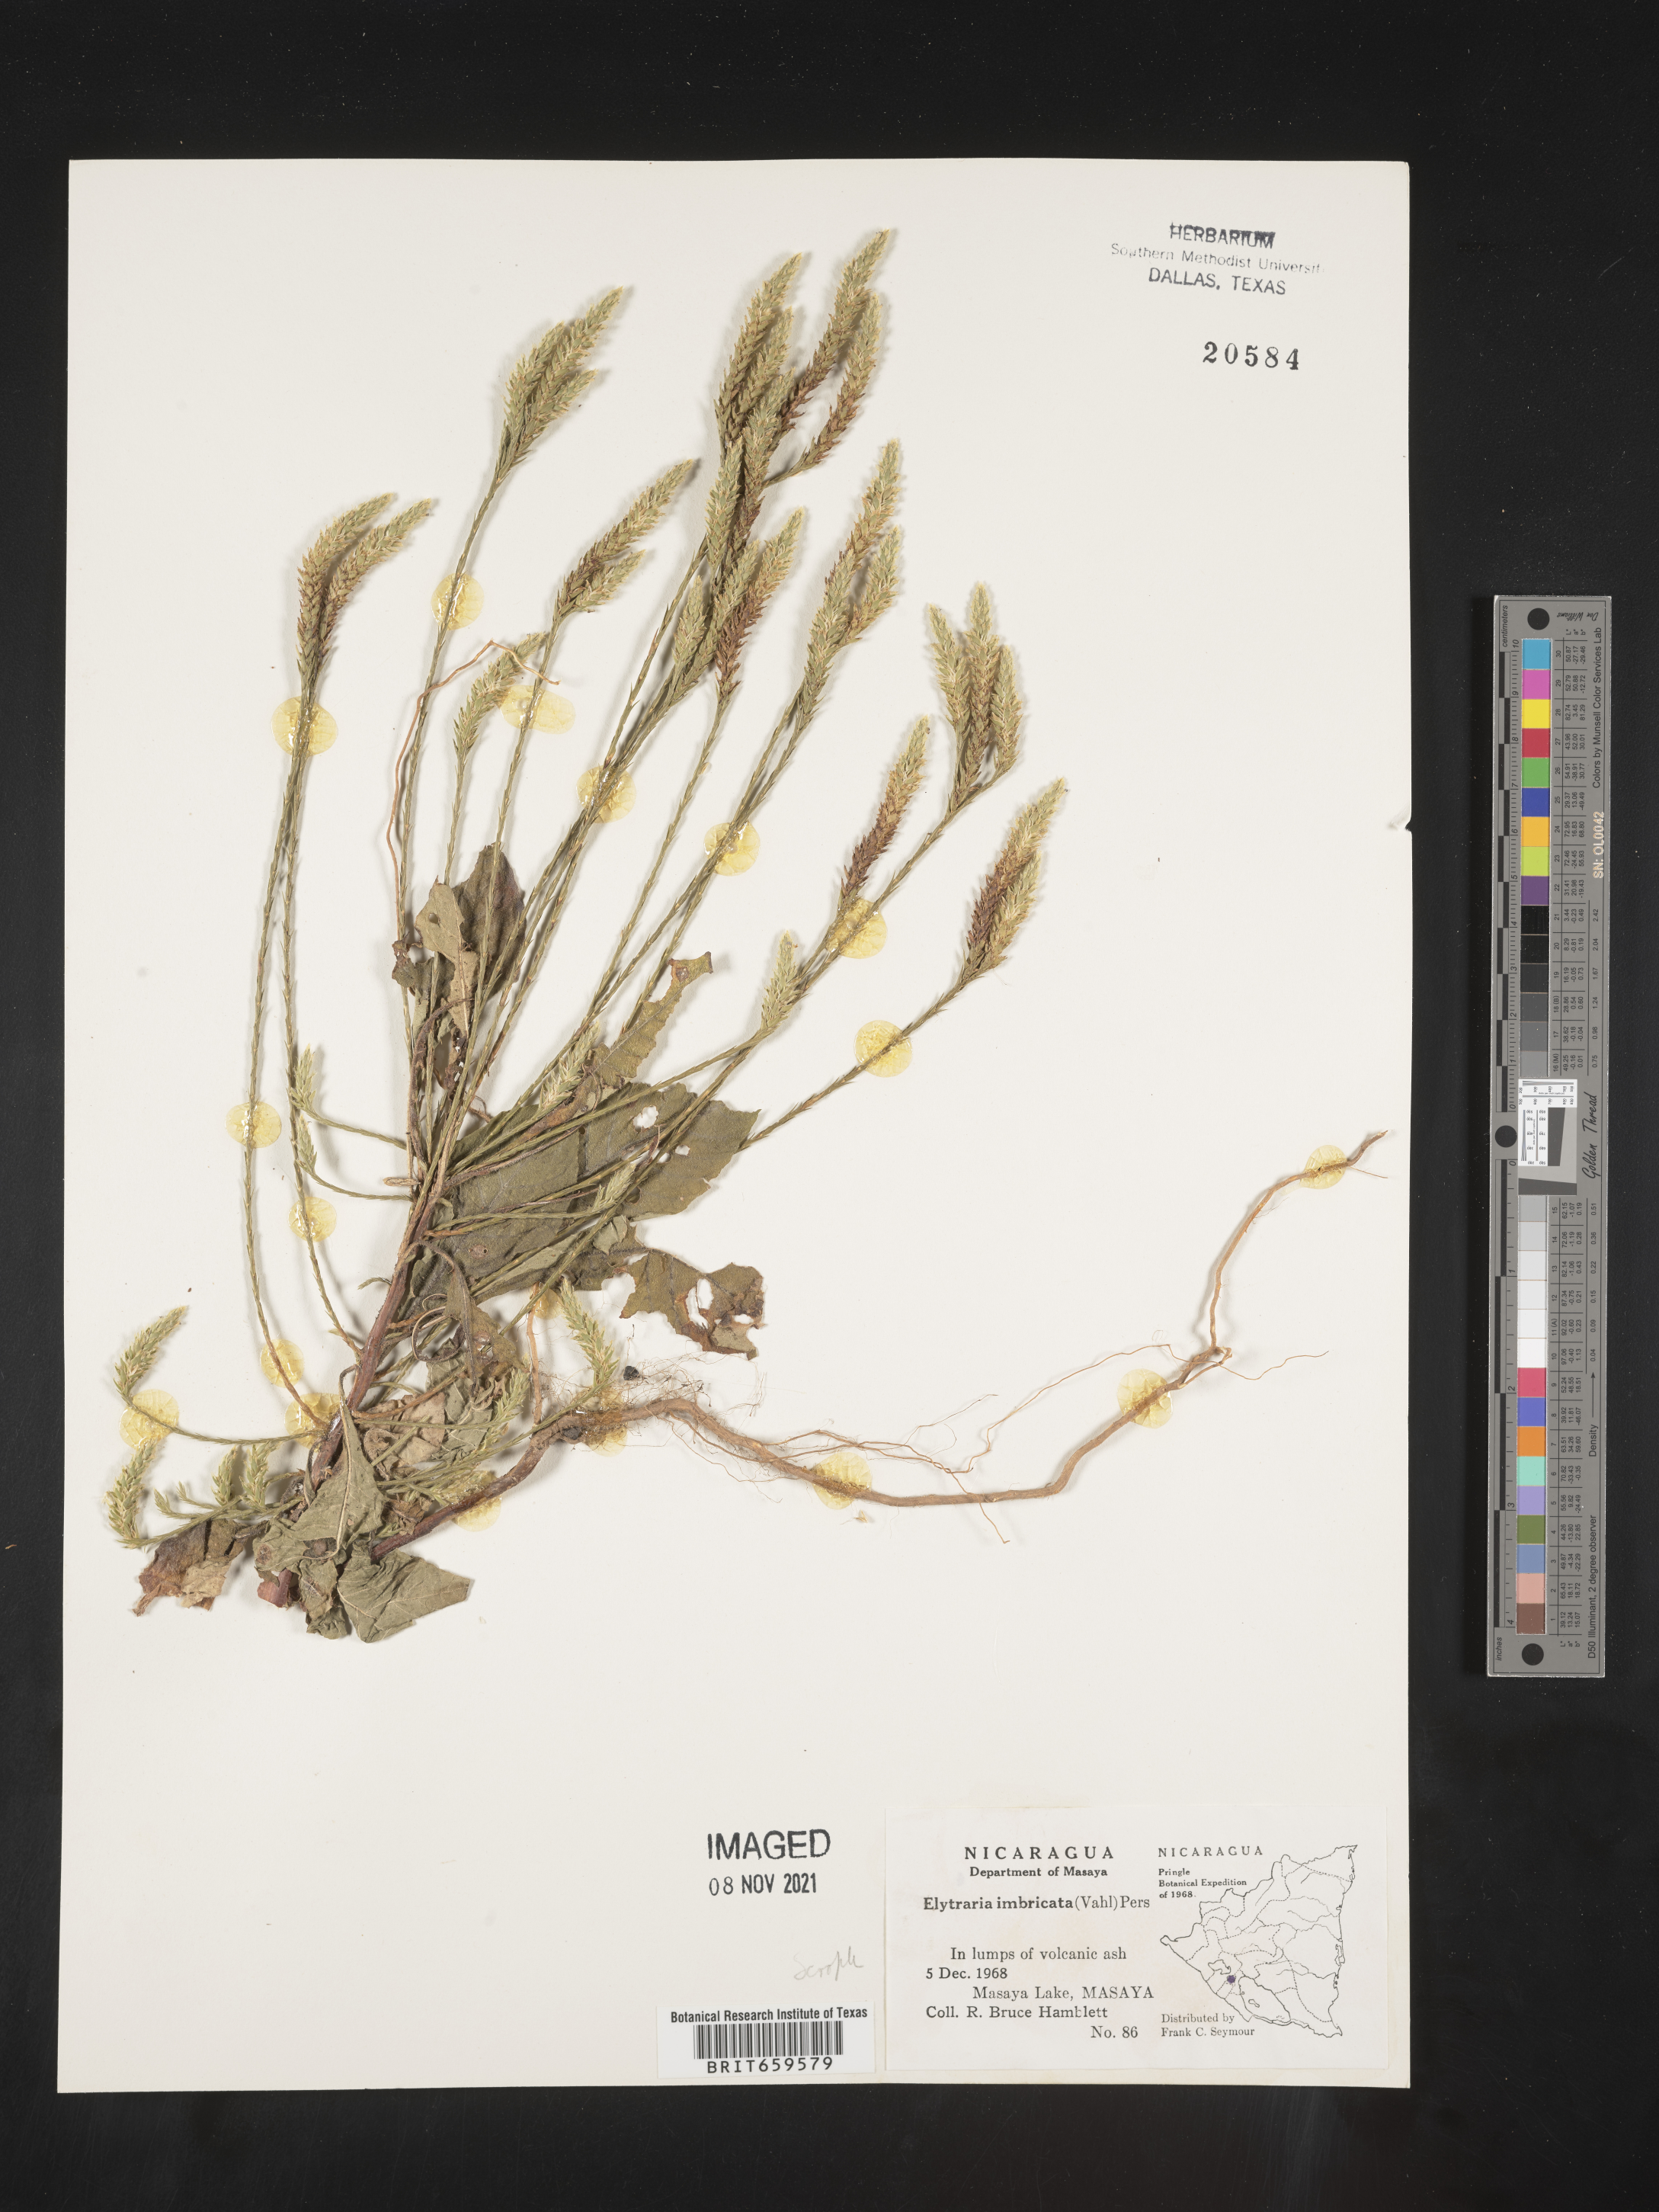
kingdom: Plantae
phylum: Tracheophyta
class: Magnoliopsida
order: Lamiales
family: Acanthaceae
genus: Elytraria
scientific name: Elytraria imbricata
